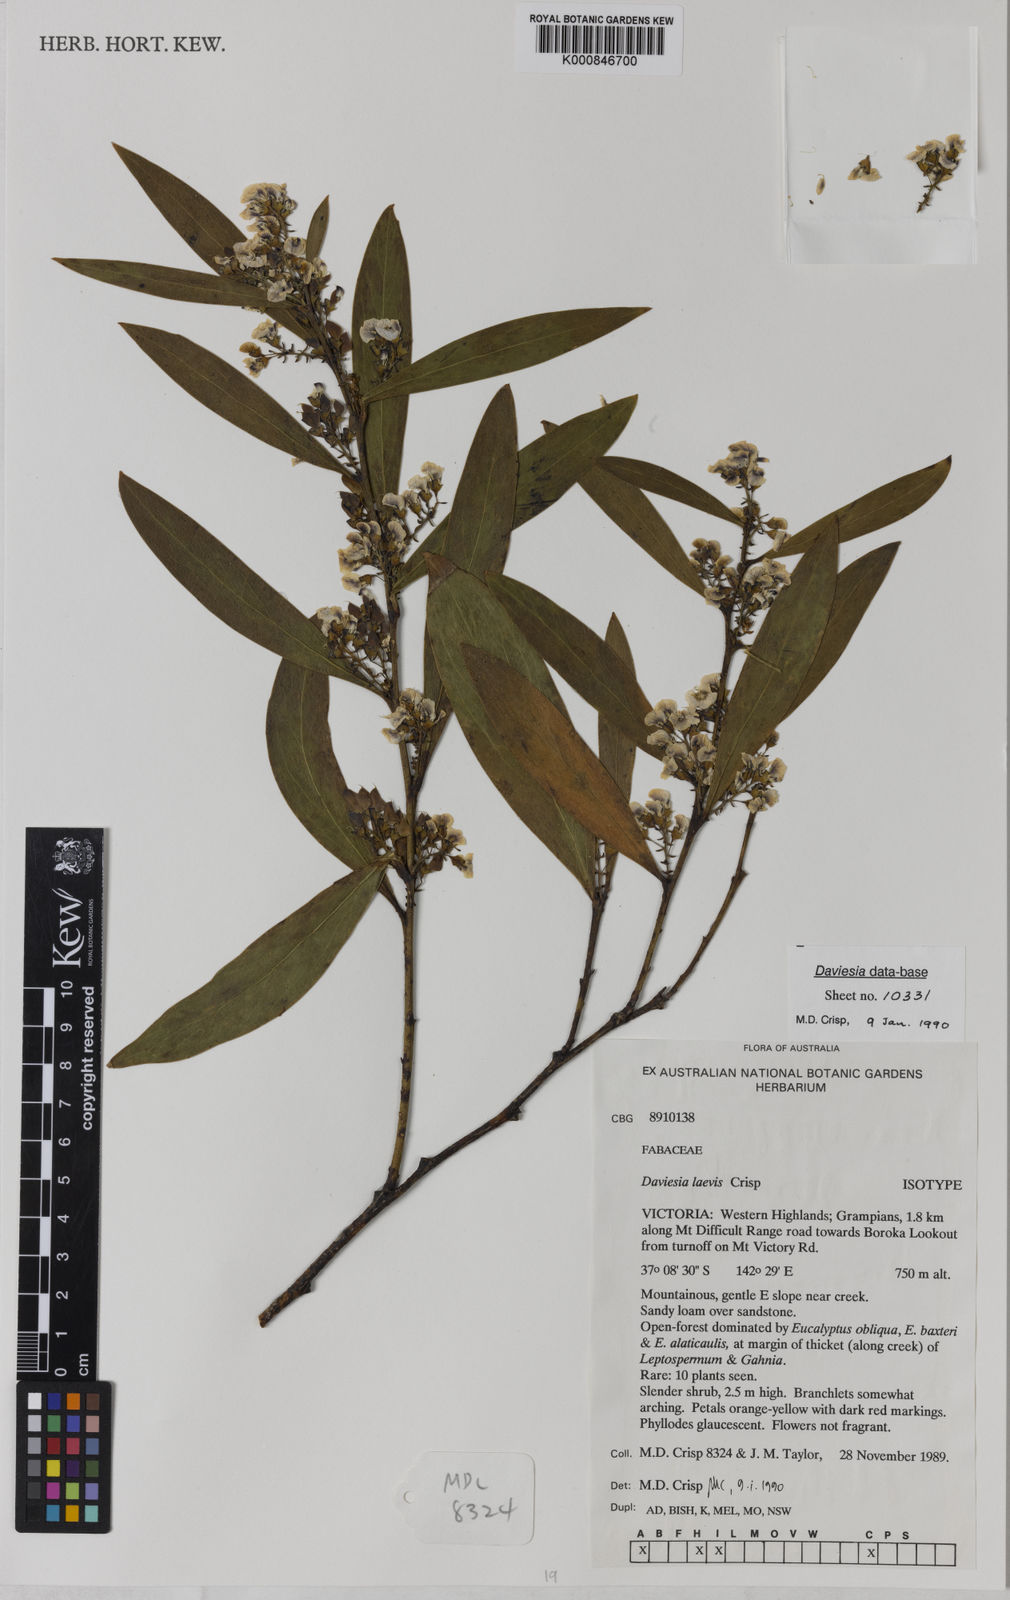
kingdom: Plantae
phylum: Tracheophyta
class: Magnoliopsida
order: Fabales
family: Fabaceae
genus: Daviesia
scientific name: Daviesia laevis
